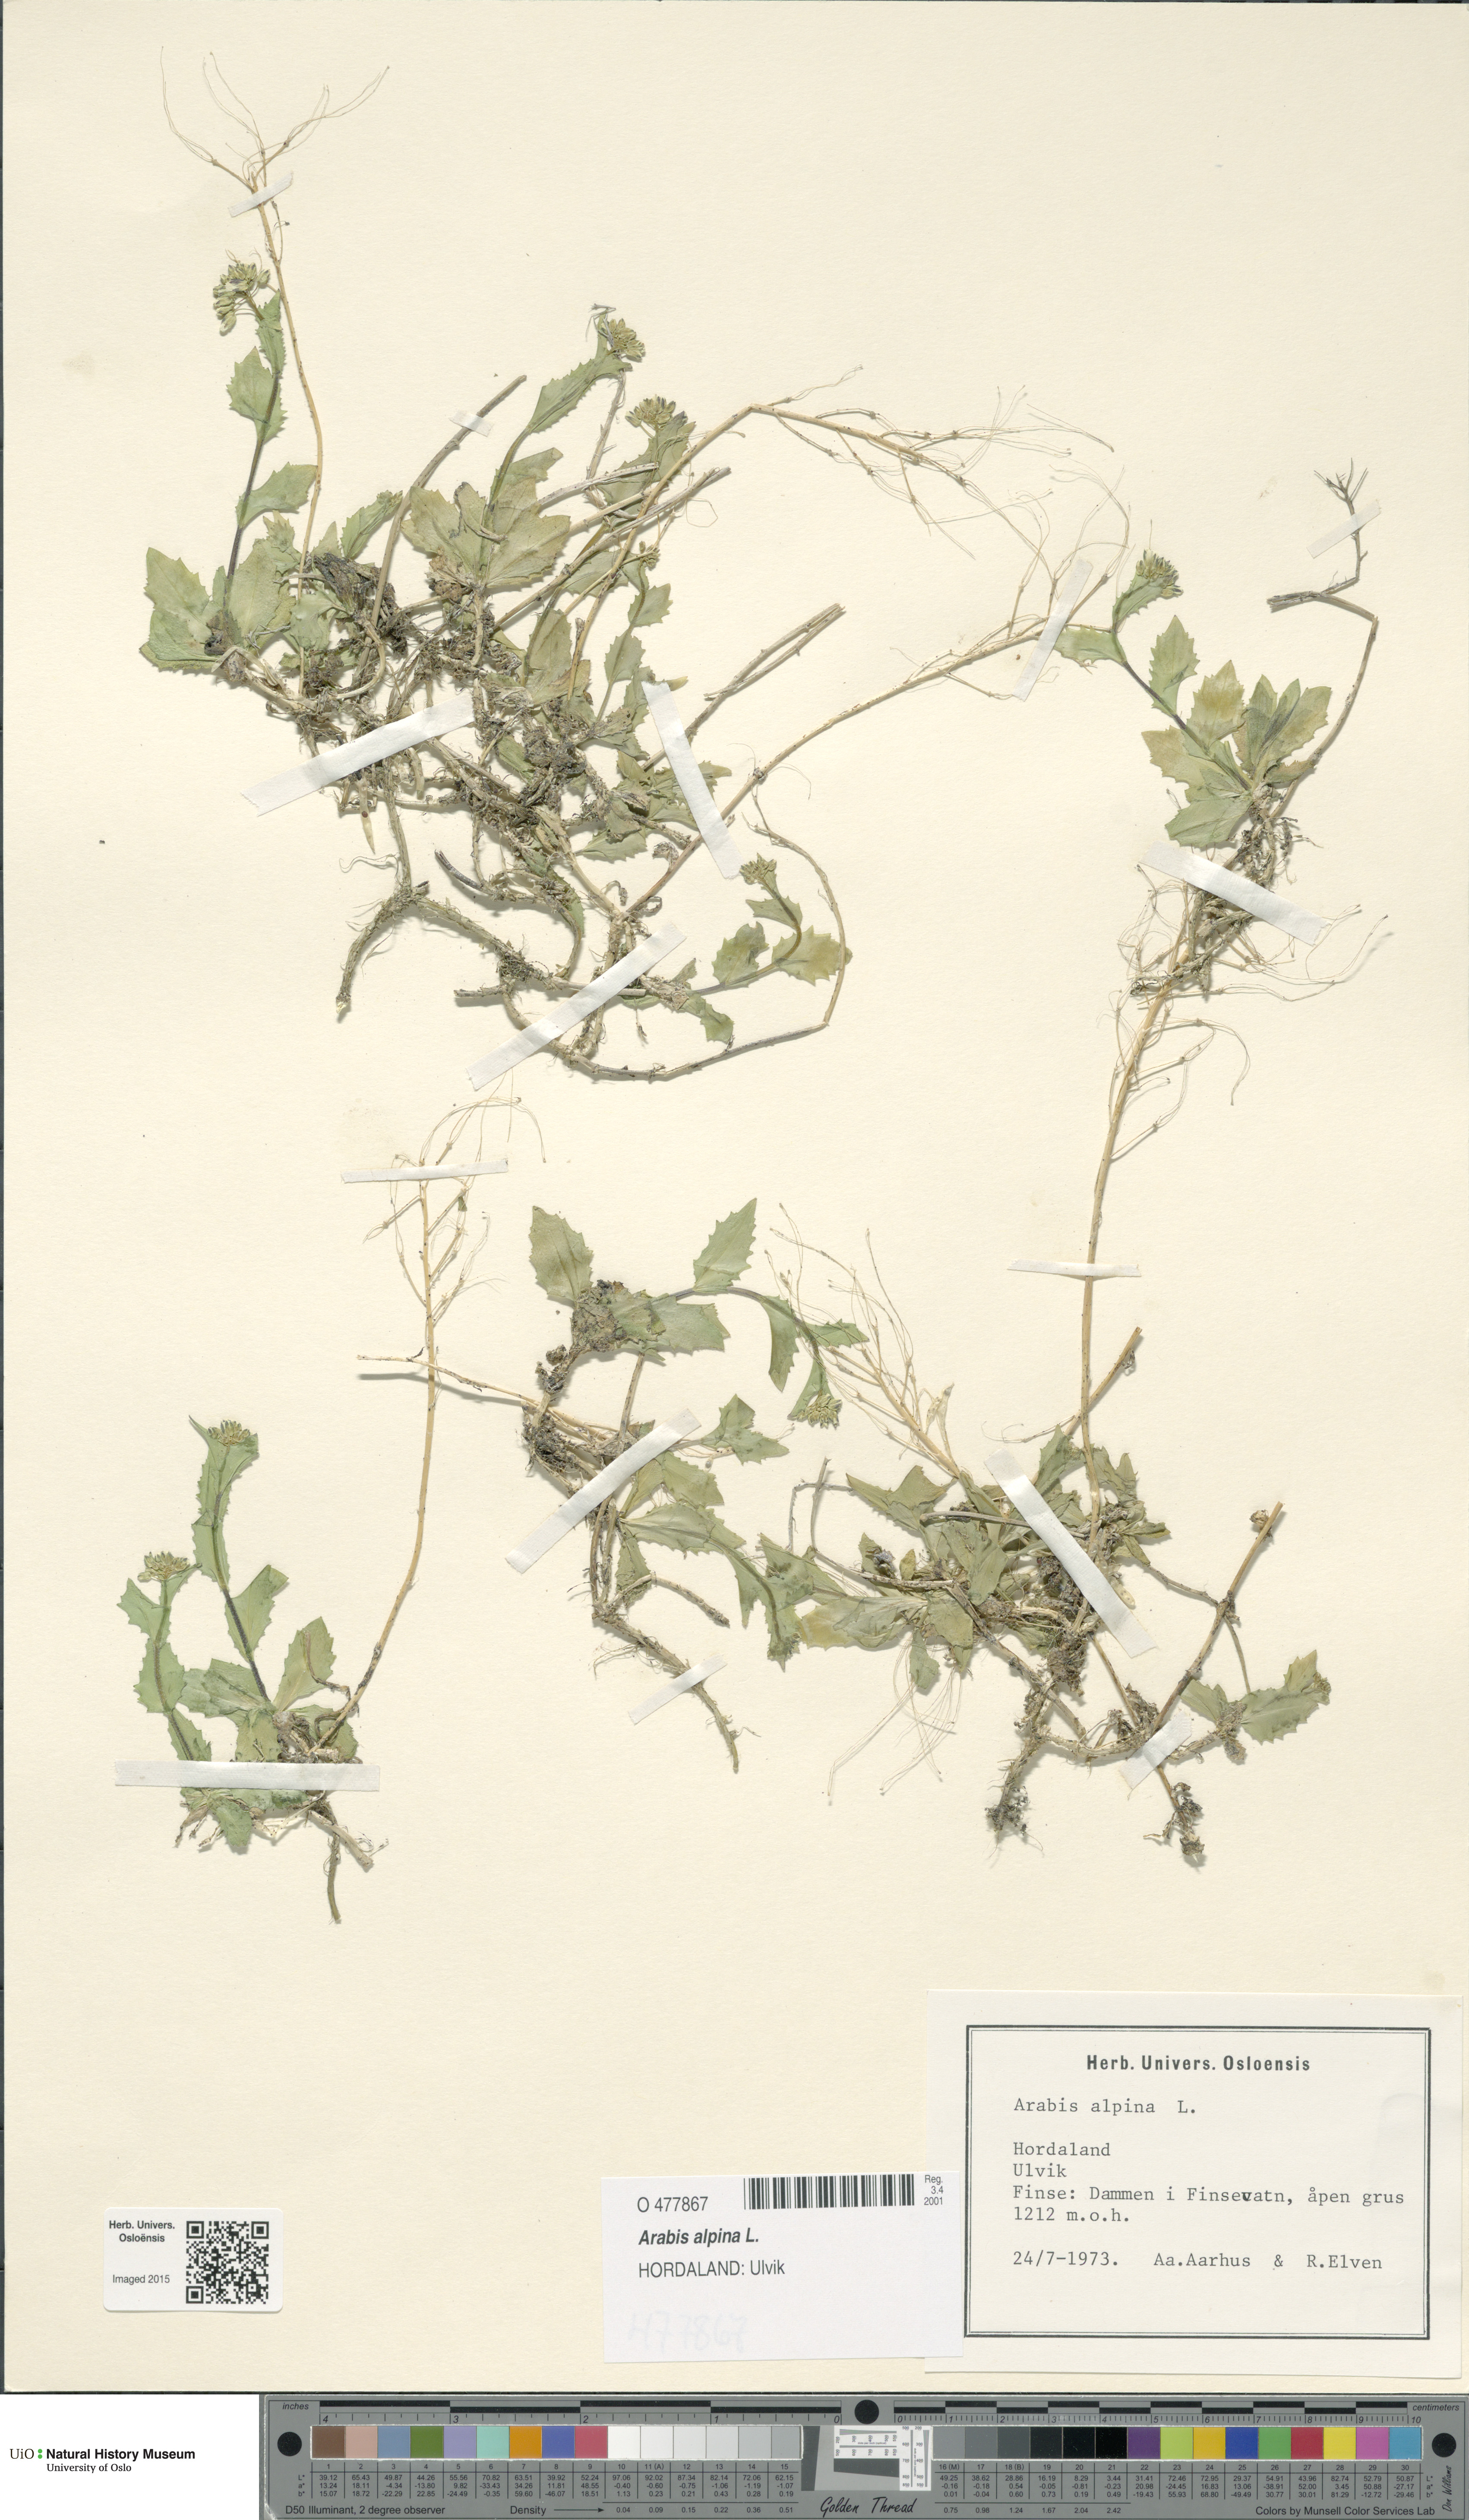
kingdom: Plantae
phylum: Tracheophyta
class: Magnoliopsida
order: Brassicales
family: Brassicaceae
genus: Arabis
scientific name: Arabis alpina
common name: Alpine rock-cress
